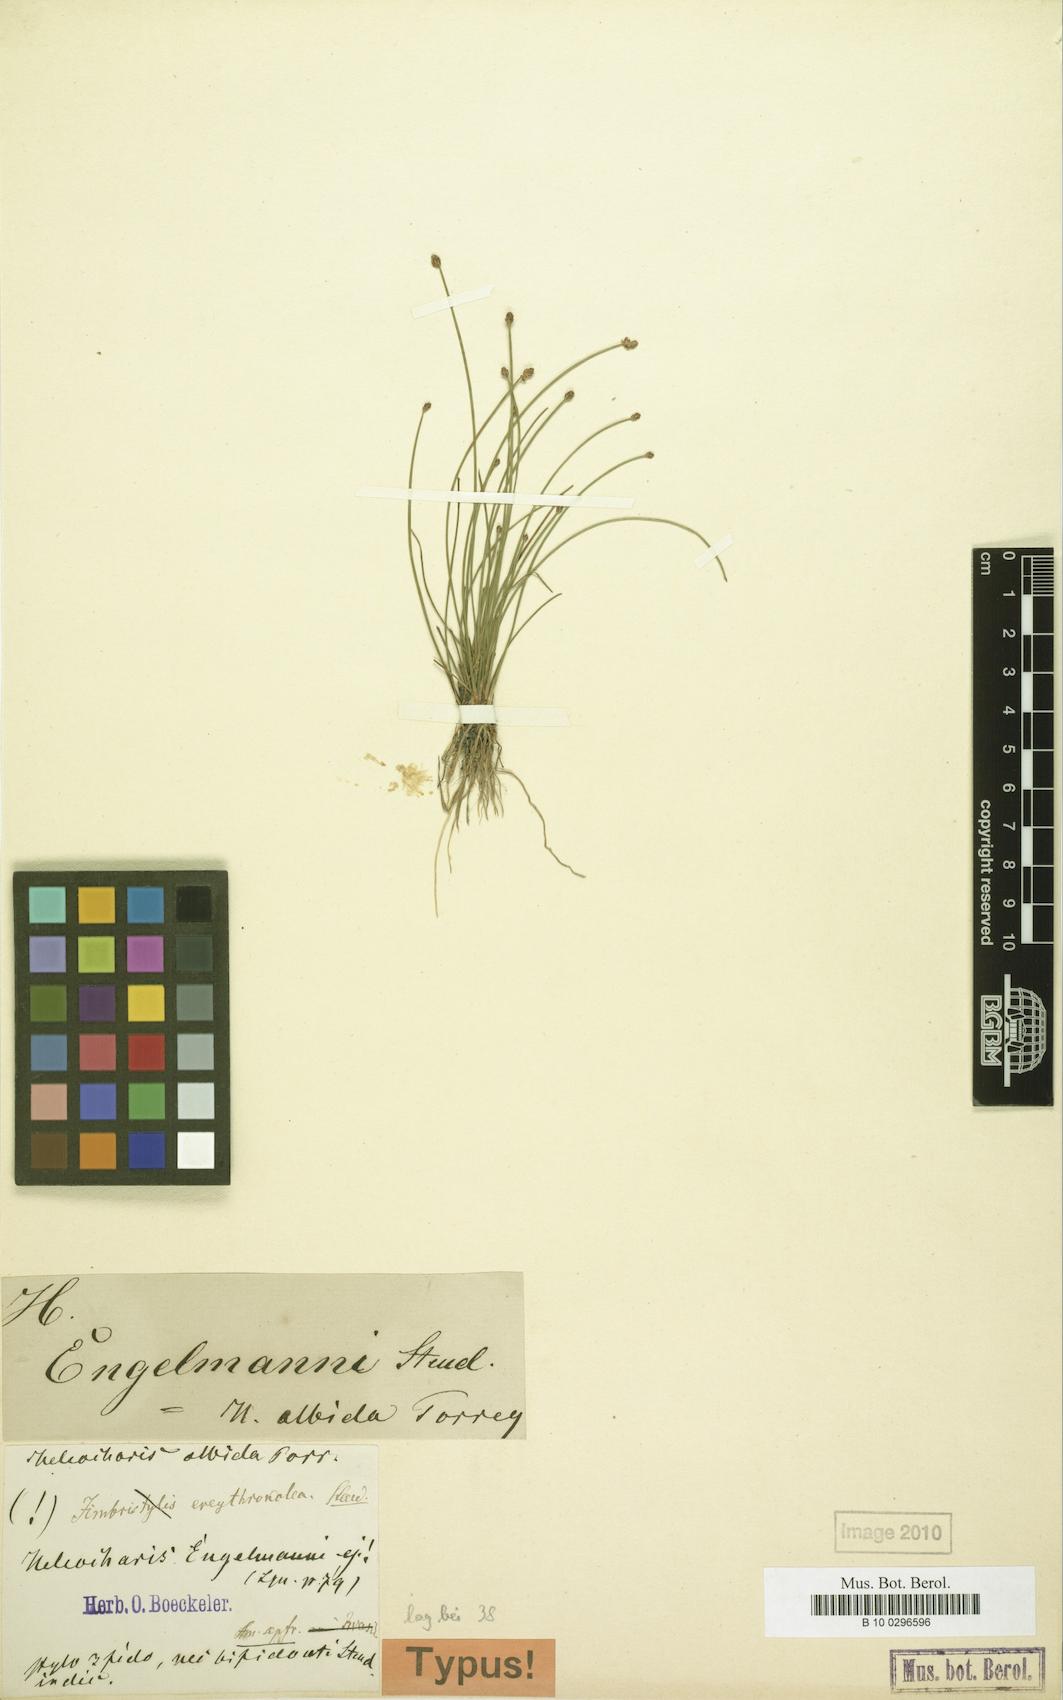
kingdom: Plantae
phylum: Tracheophyta
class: Liliopsida
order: Poales
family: Cyperaceae
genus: Eleocharis
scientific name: Eleocharis engelmannii
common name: Engelmann's spikerush
